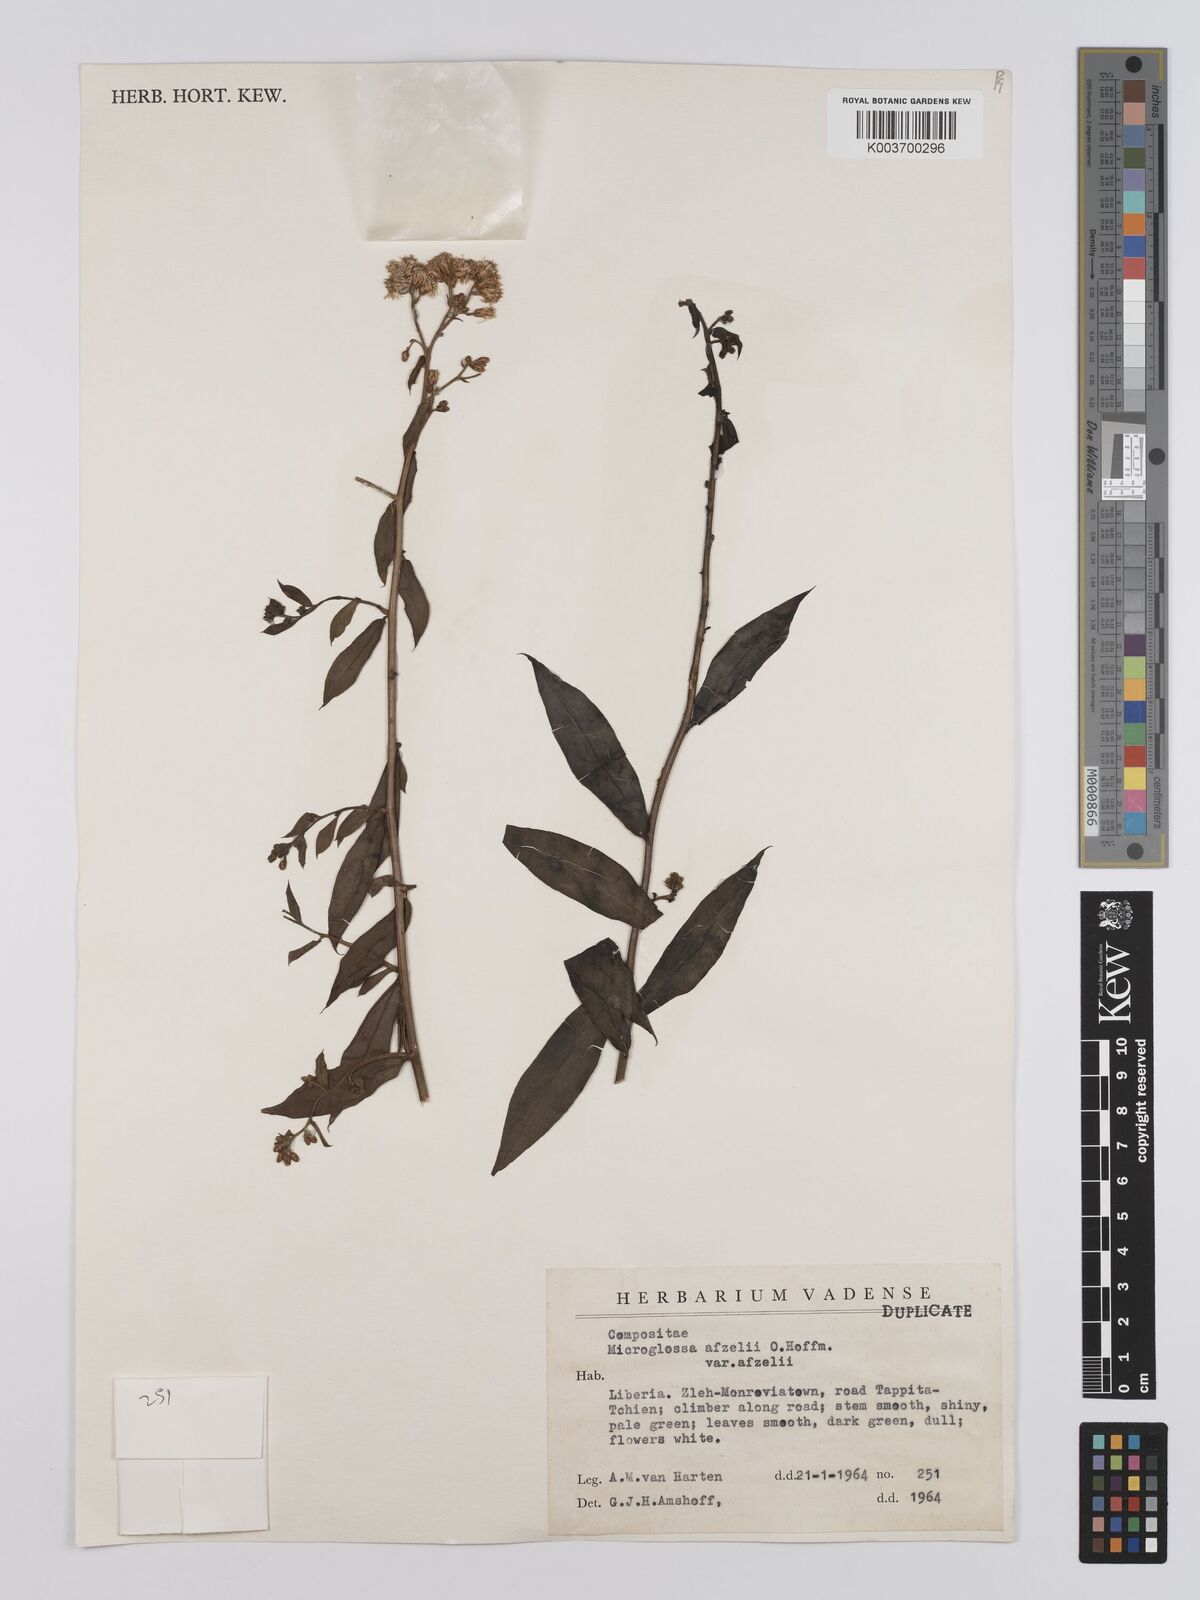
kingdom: Plantae
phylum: Tracheophyta
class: Magnoliopsida
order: Asterales
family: Asteraceae
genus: Microglossa
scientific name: Microglossa afzelii
